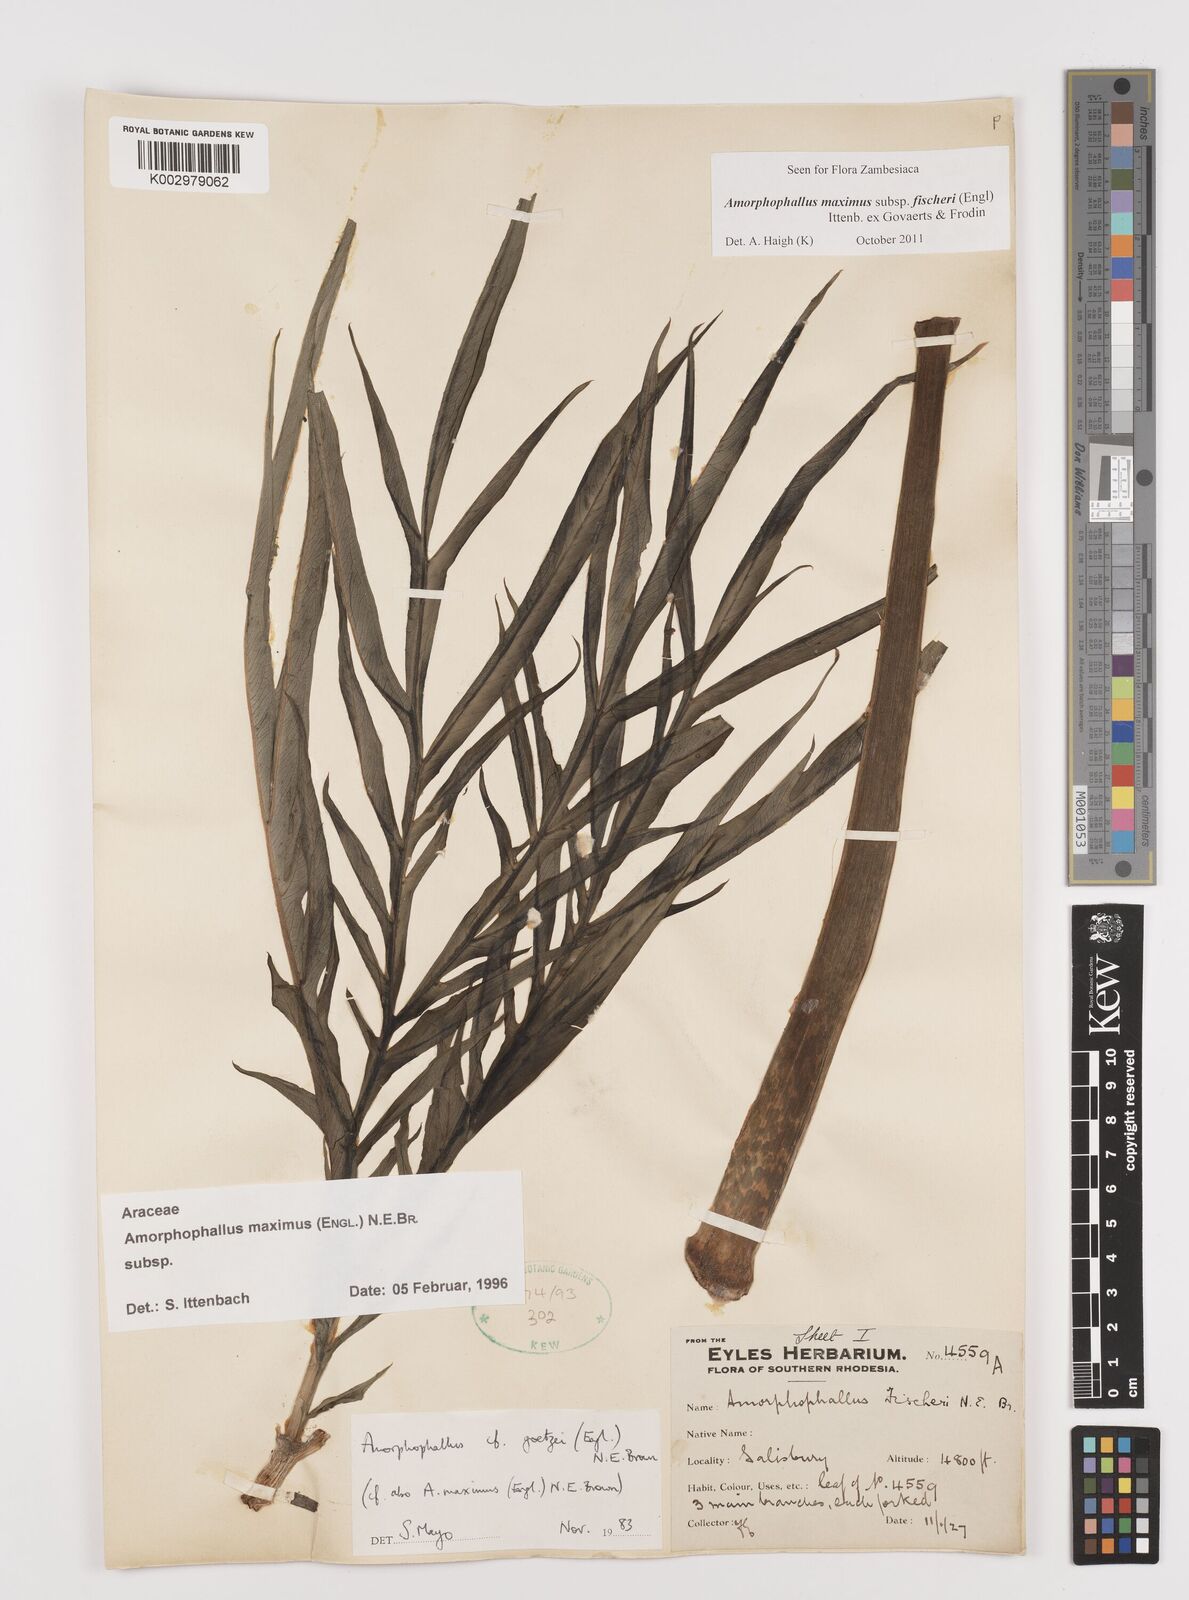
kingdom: Plantae
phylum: Tracheophyta
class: Liliopsida
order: Alismatales
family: Araceae
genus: Amorphophallus
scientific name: Amorphophallus maximus
